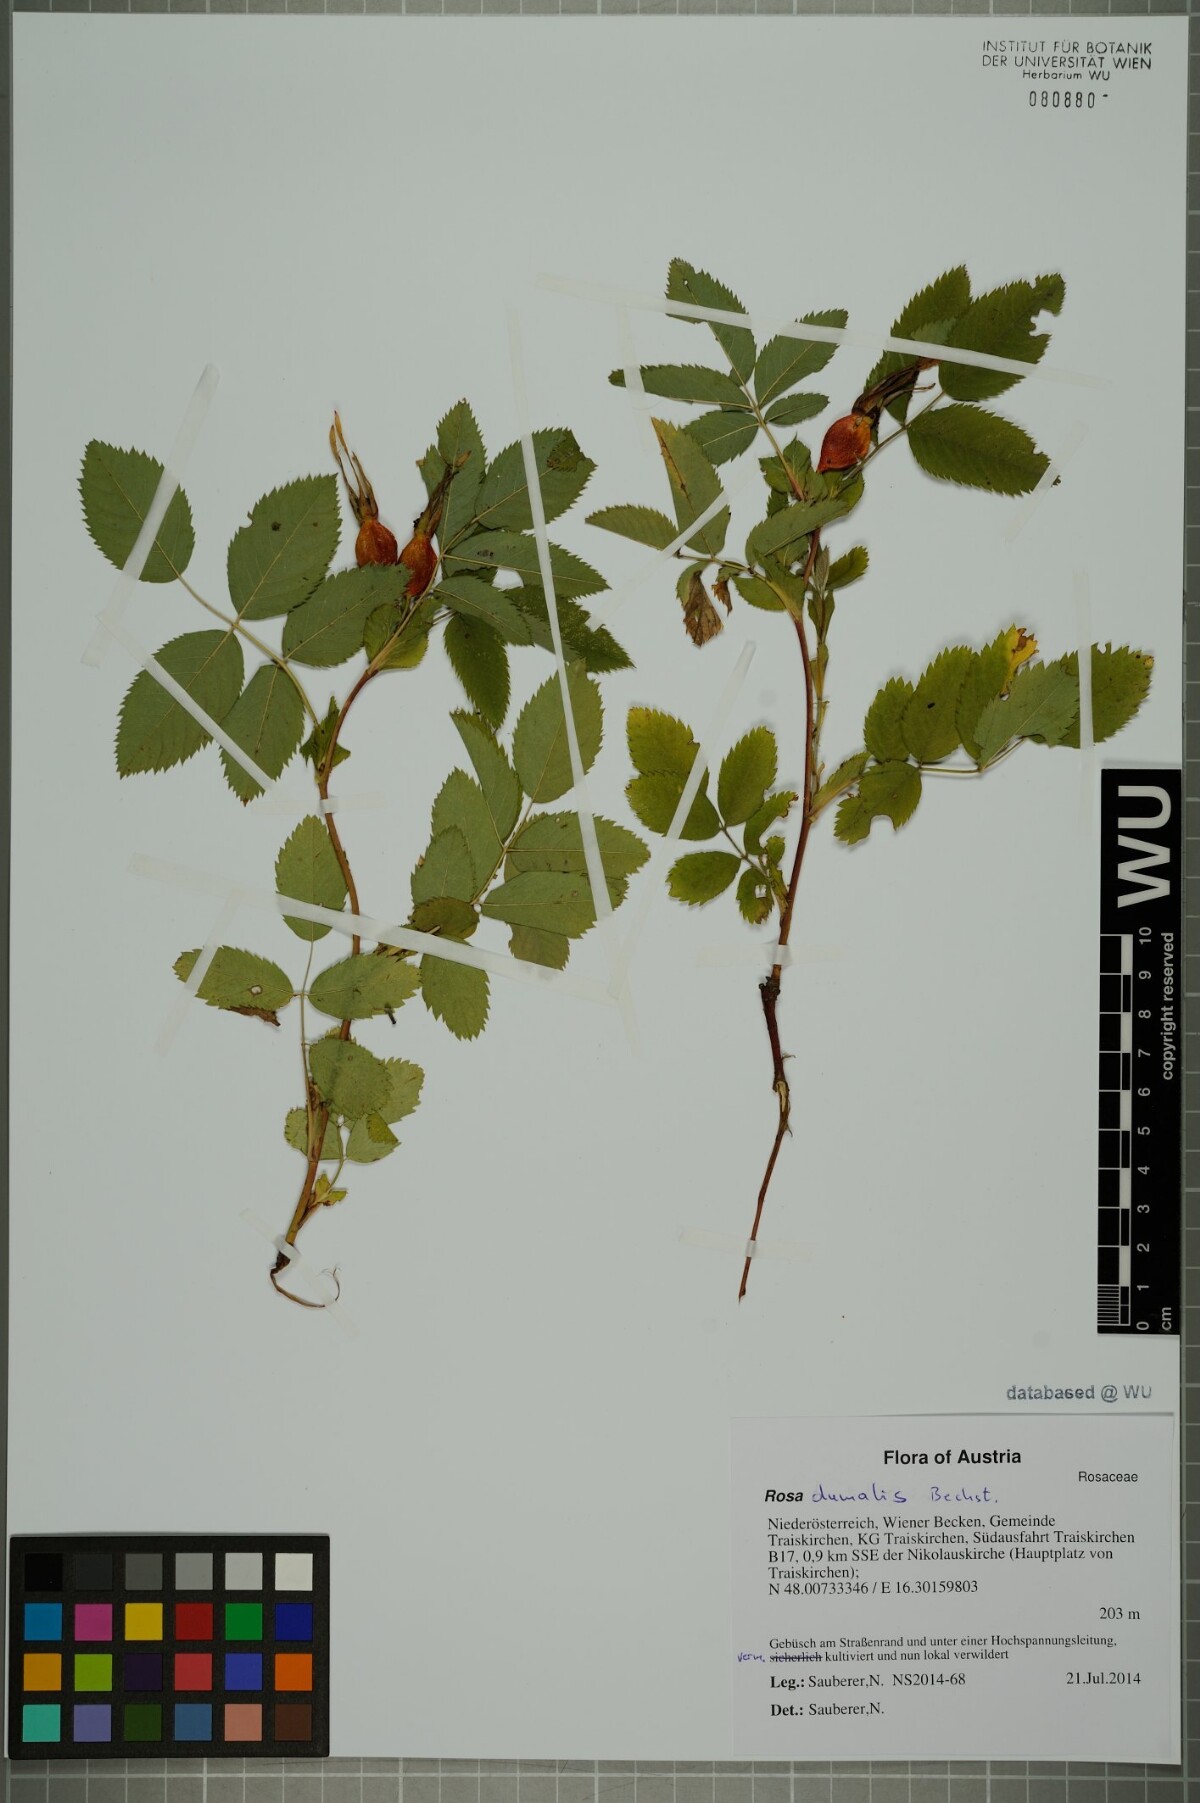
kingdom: Plantae
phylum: Tracheophyta
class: Magnoliopsida
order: Rosales
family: Rosaceae
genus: Rosa
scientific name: Rosa dumalis
